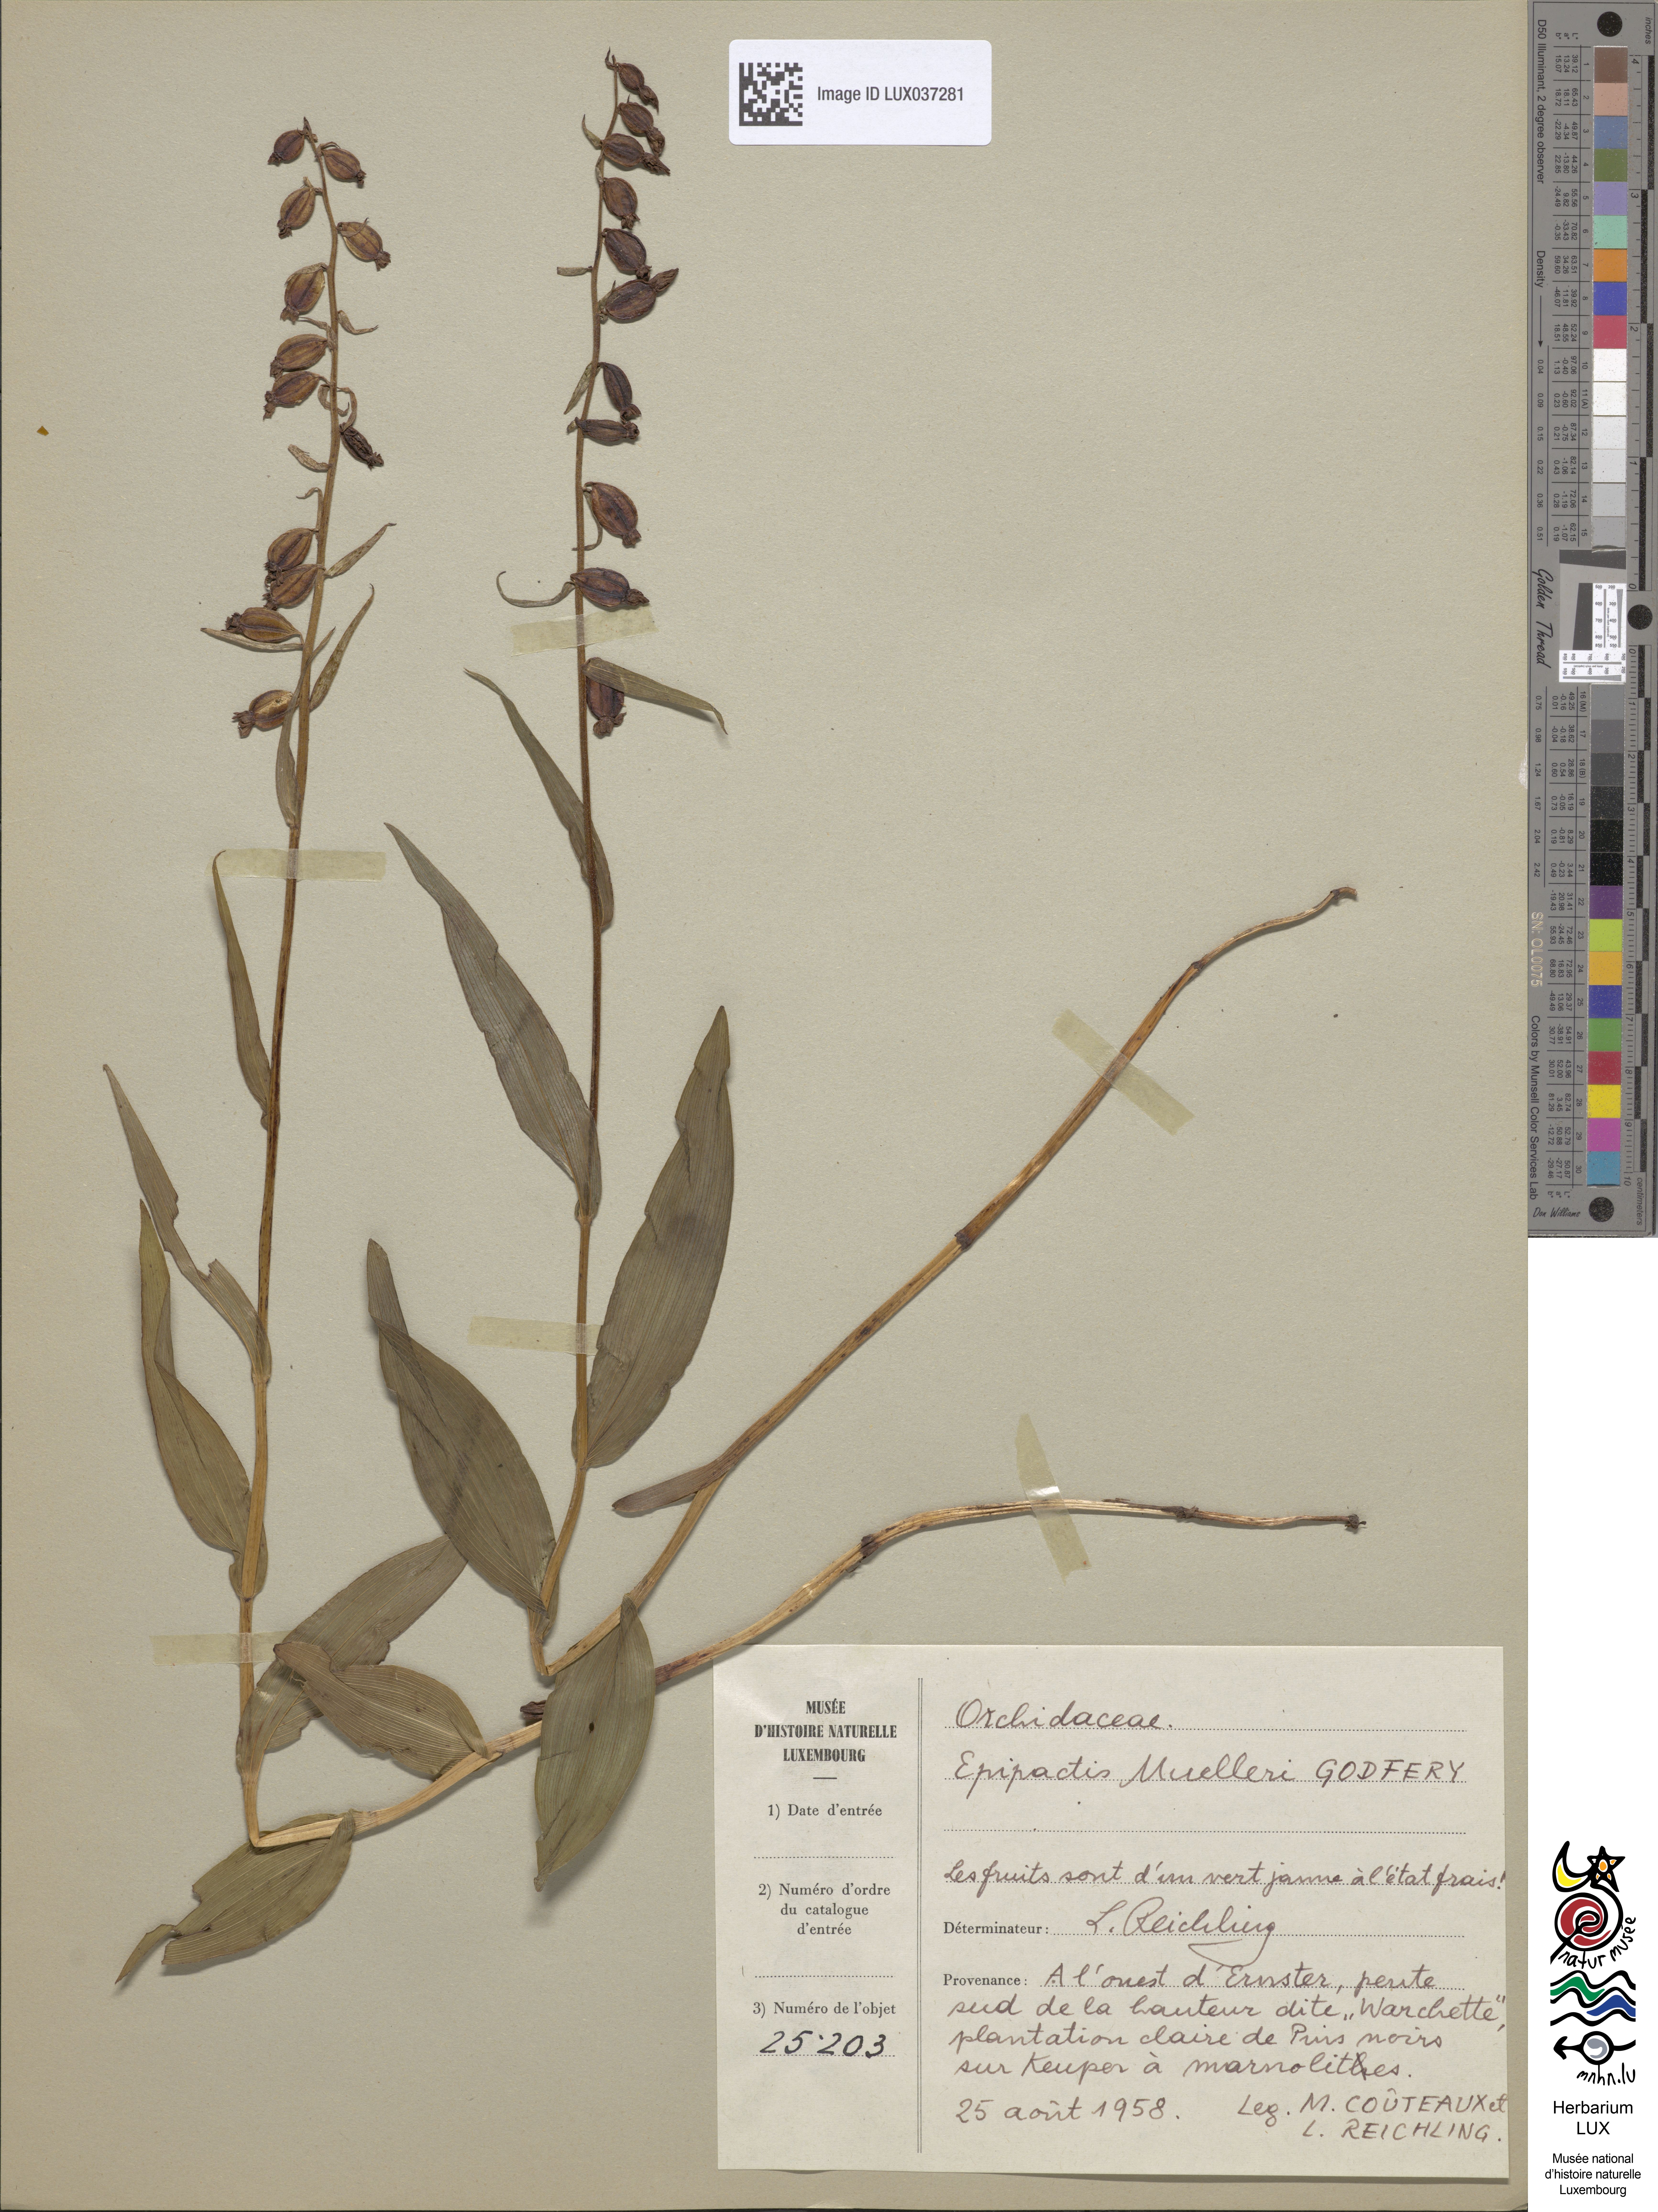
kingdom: Plantae
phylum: Tracheophyta
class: Liliopsida
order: Asparagales
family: Orchidaceae
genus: Epipactis
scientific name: Epipactis muelleri
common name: Mueller's epipactis
